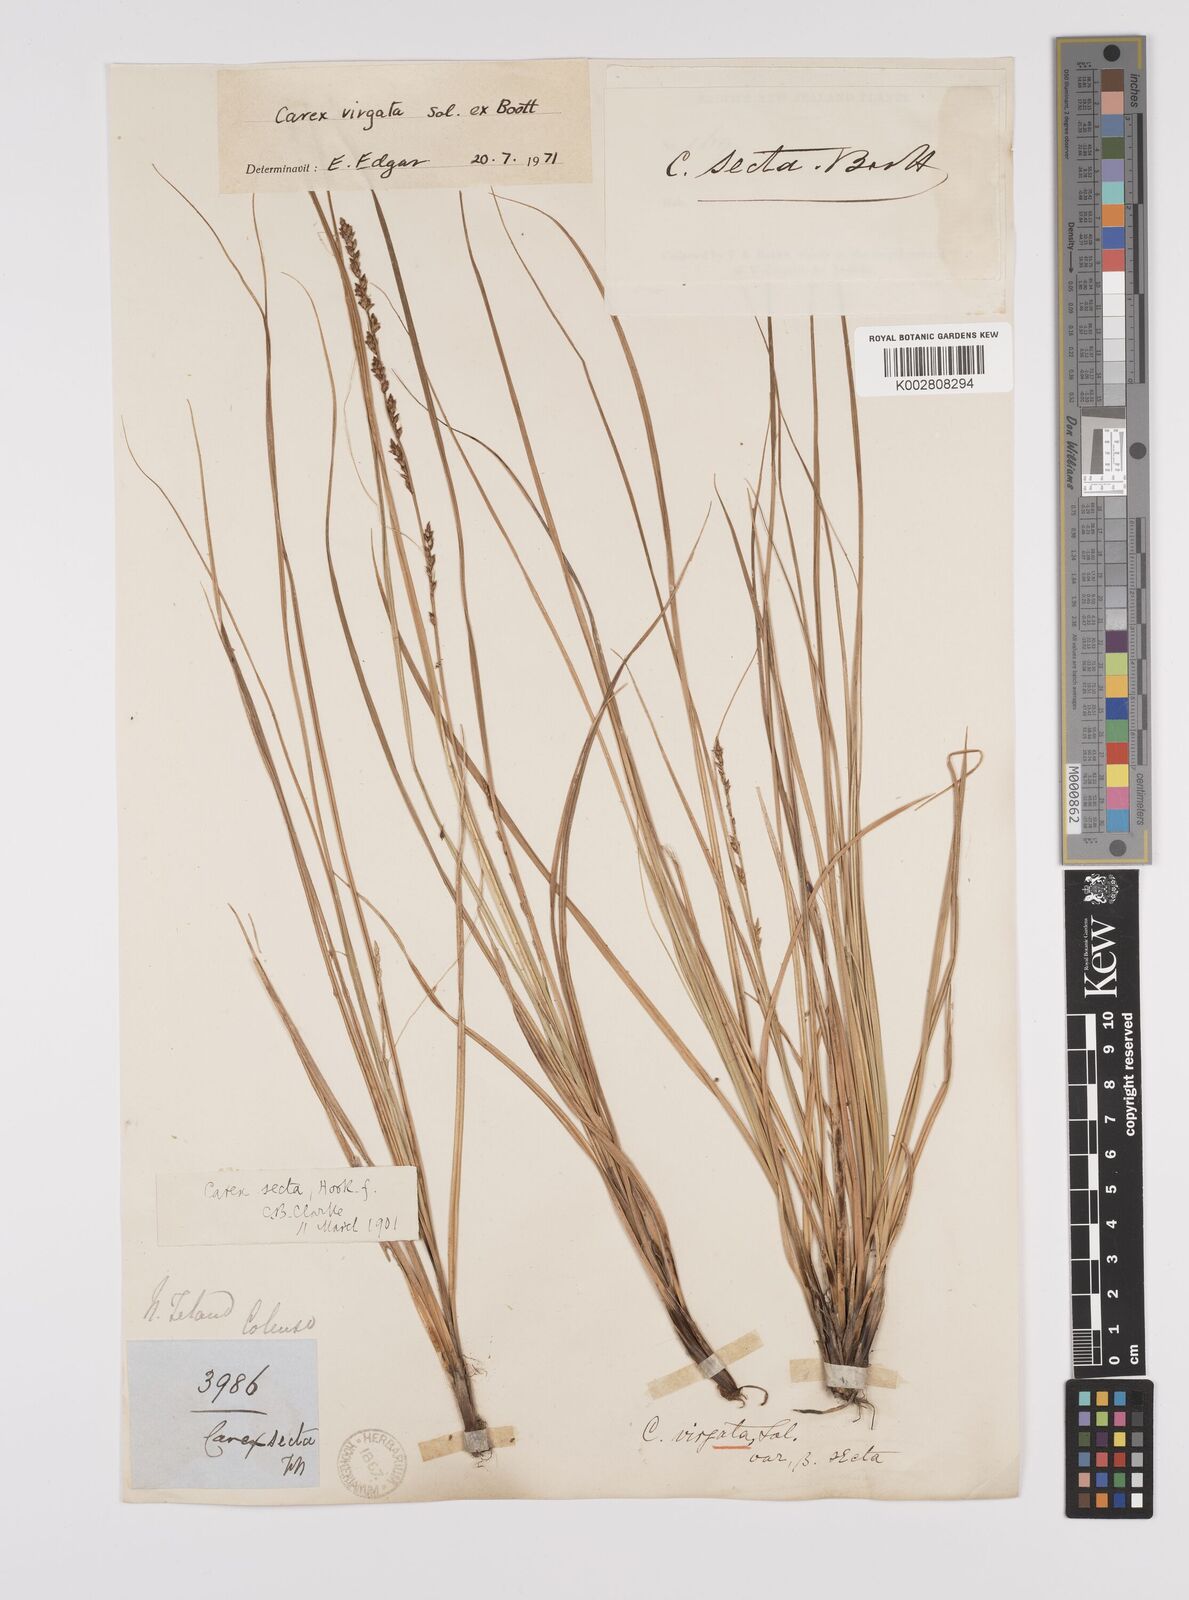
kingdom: Plantae
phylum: Tracheophyta
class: Liliopsida
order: Poales
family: Cyperaceae
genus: Carex
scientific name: Carex appressa
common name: Tussock sedge
